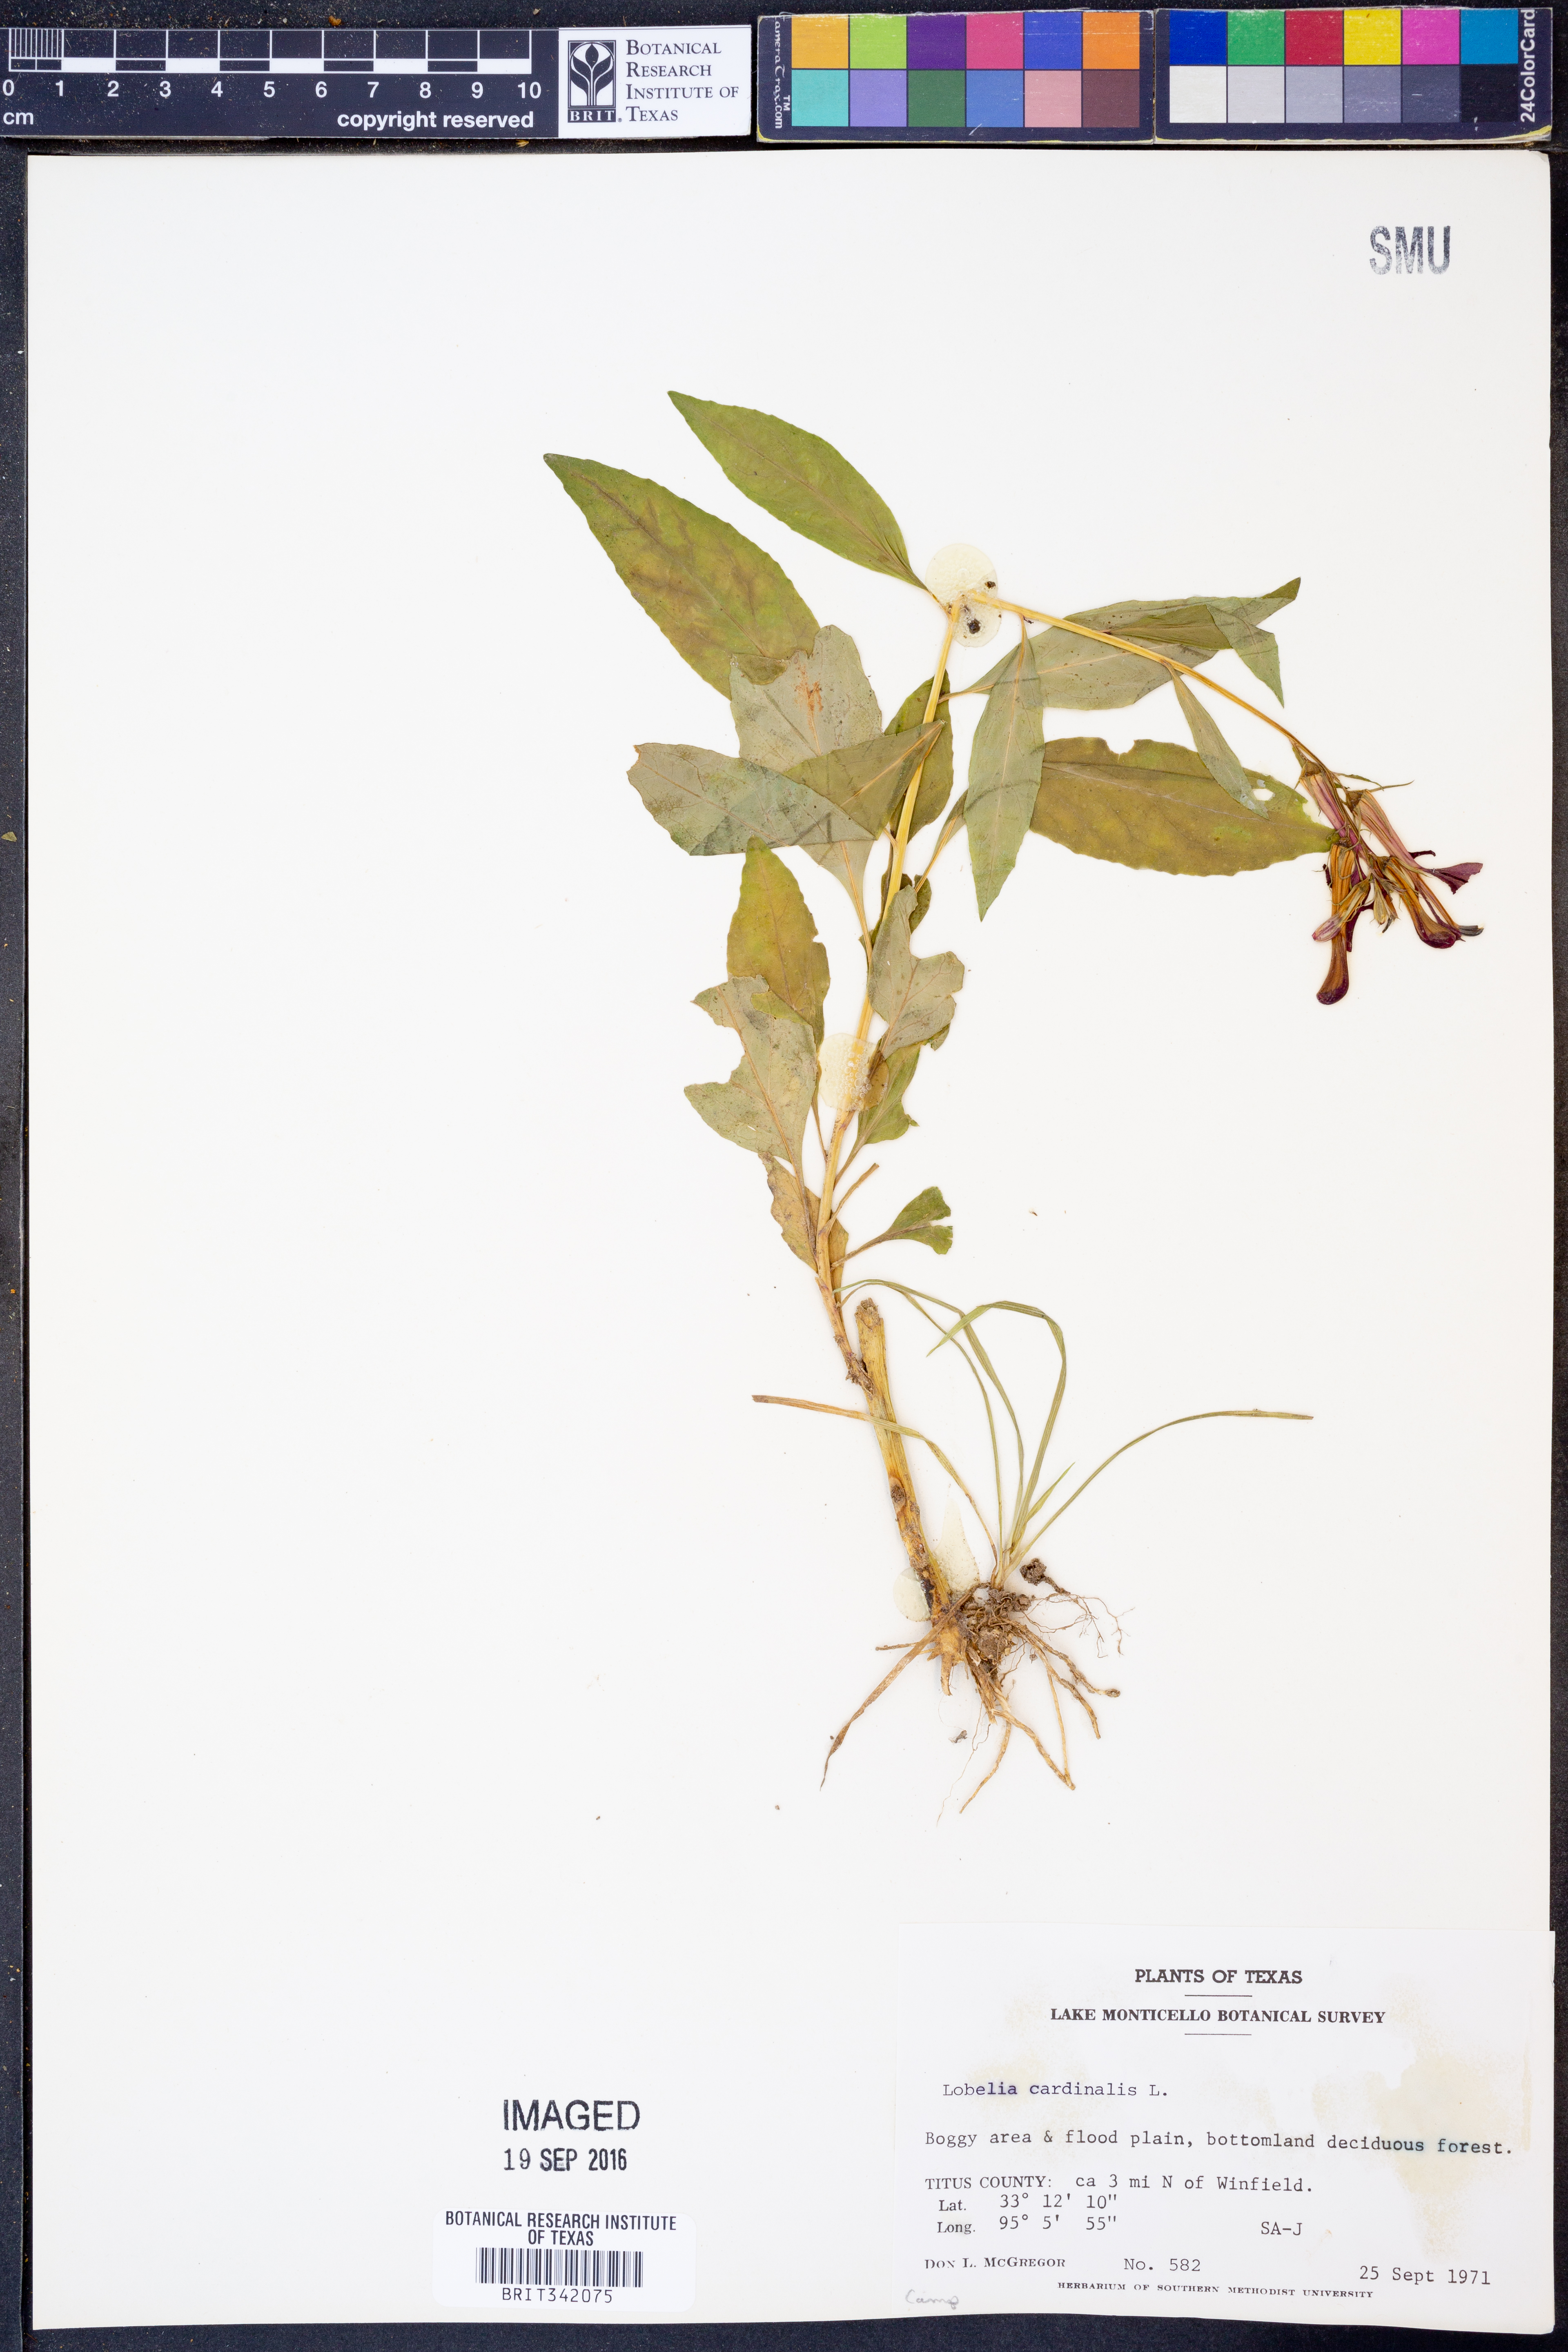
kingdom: Plantae
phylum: Tracheophyta
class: Magnoliopsida
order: Asterales
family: Campanulaceae
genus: Lobelia
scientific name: Lobelia cardinalis
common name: Cardinal flower
